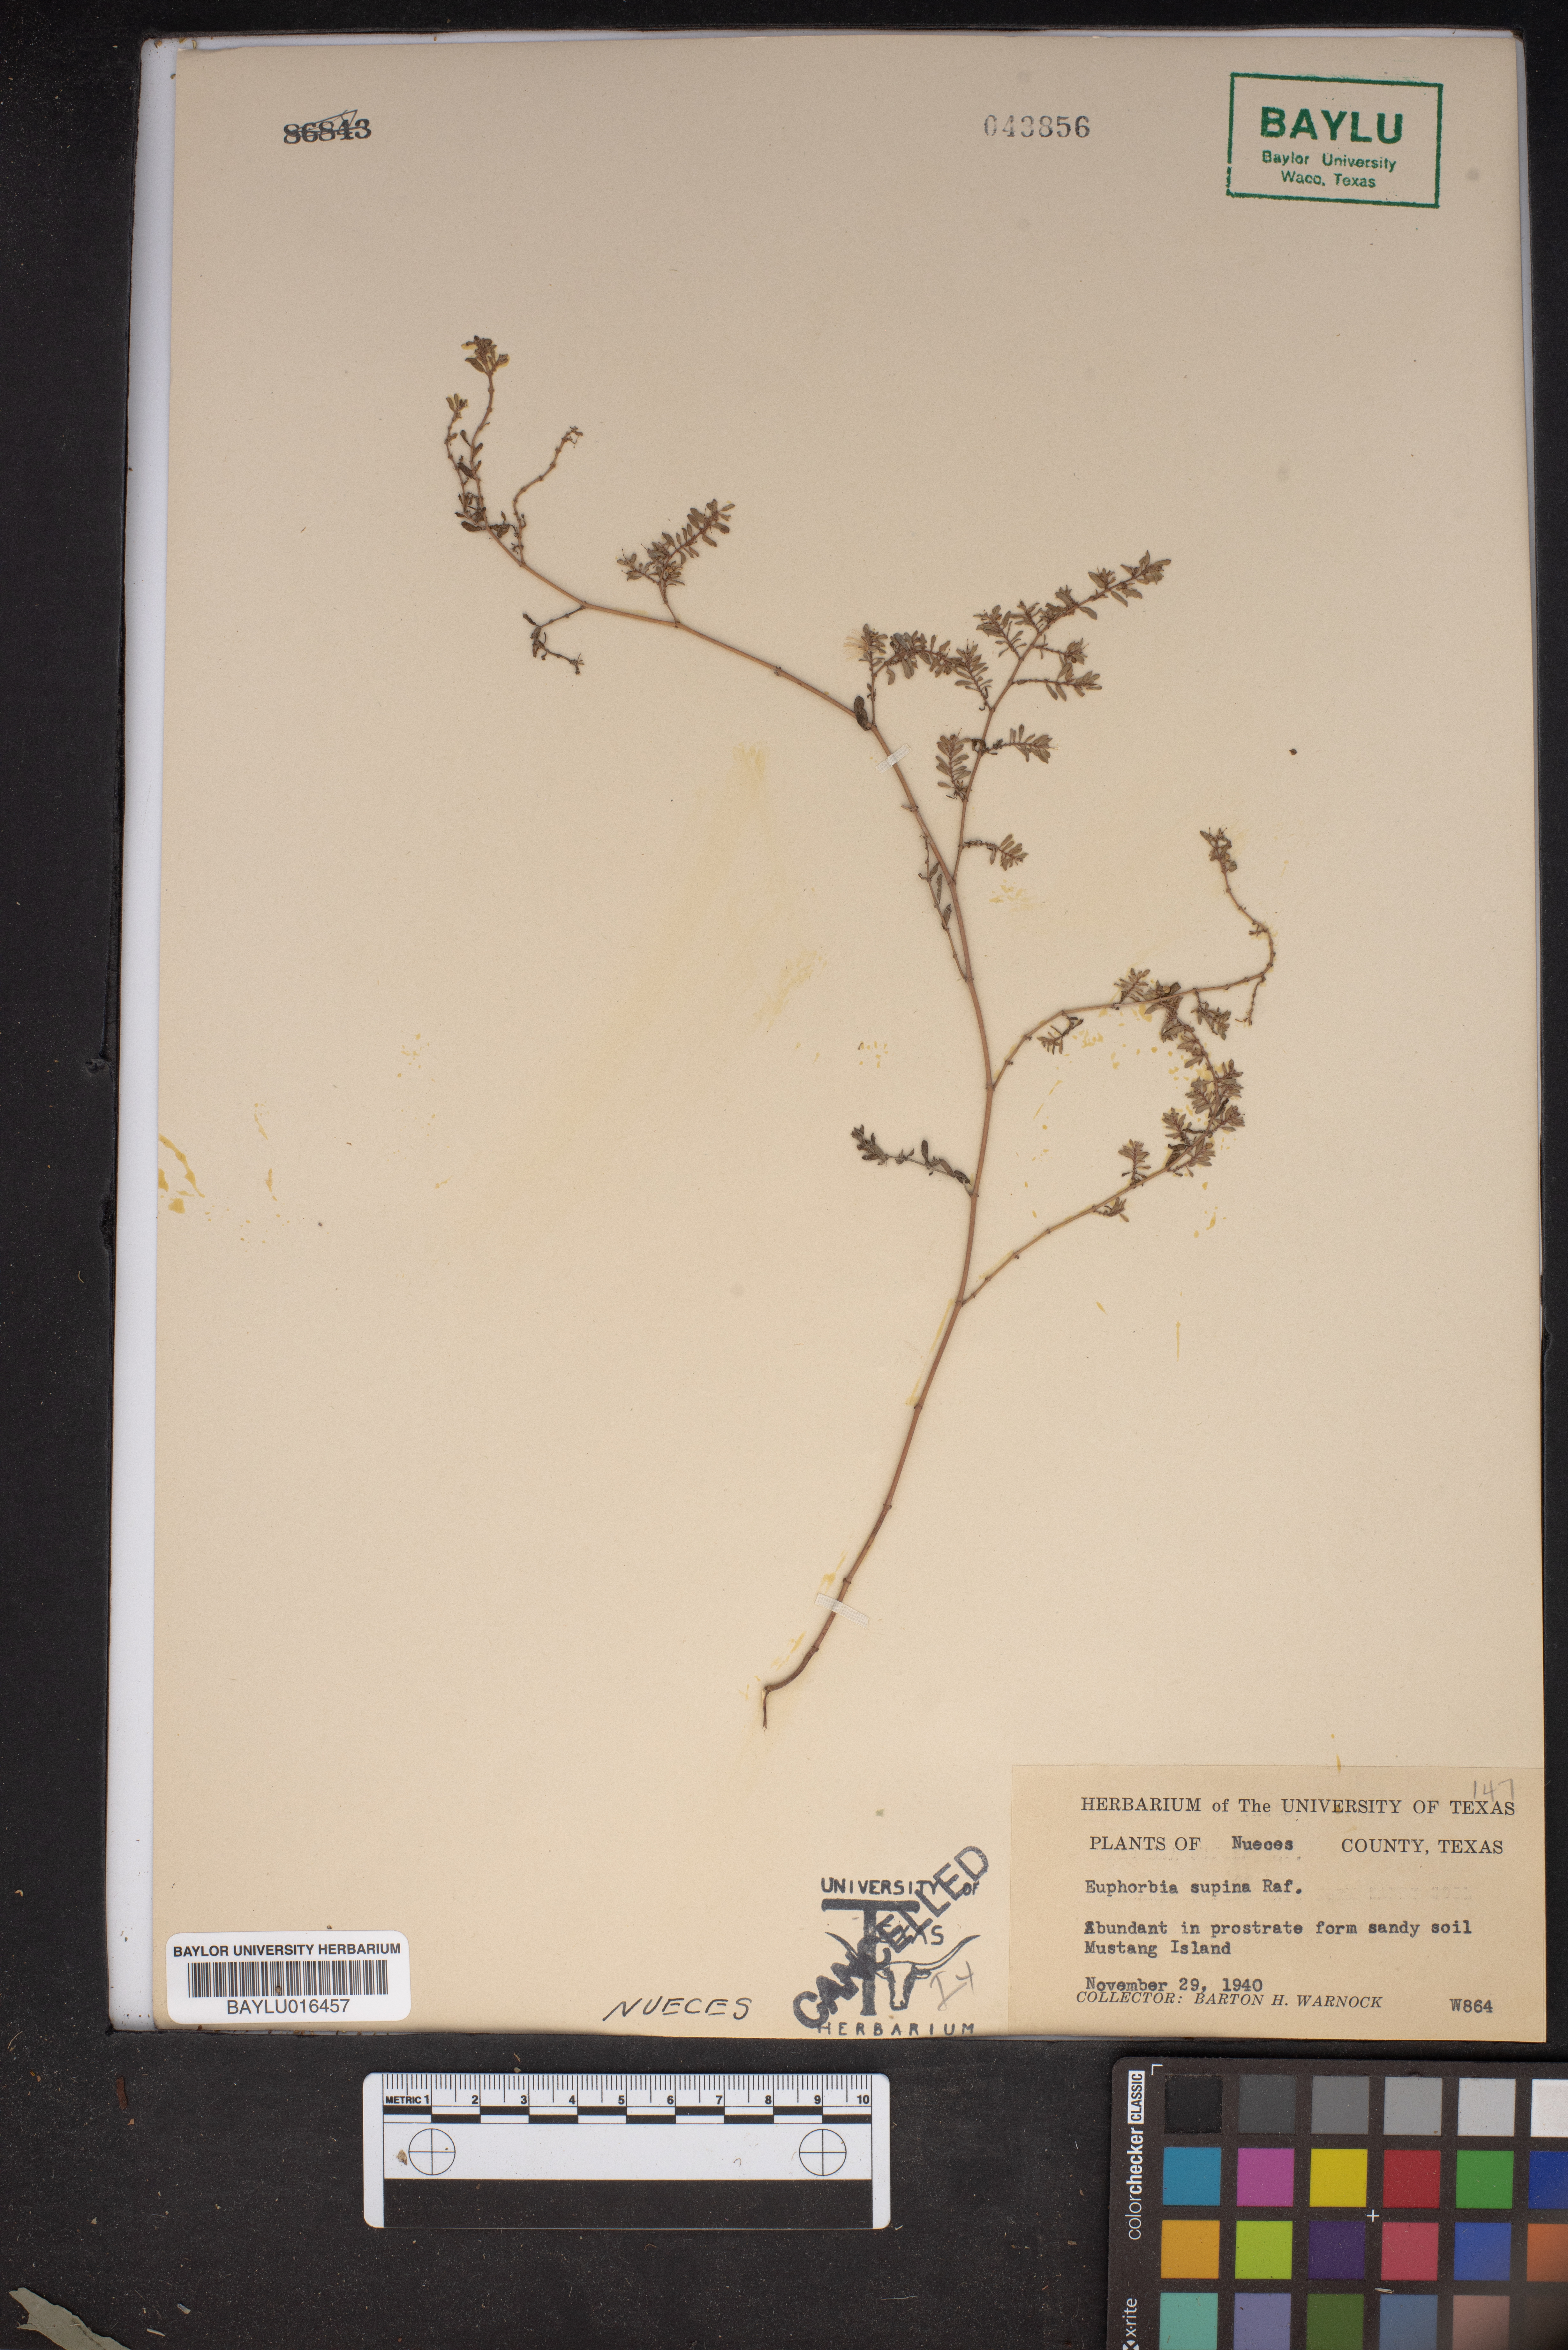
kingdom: Plantae
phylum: Tracheophyta
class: Magnoliopsida
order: Malpighiales
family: Euphorbiaceae
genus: Euphorbia
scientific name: Euphorbia maculata
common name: Spotted spurge
